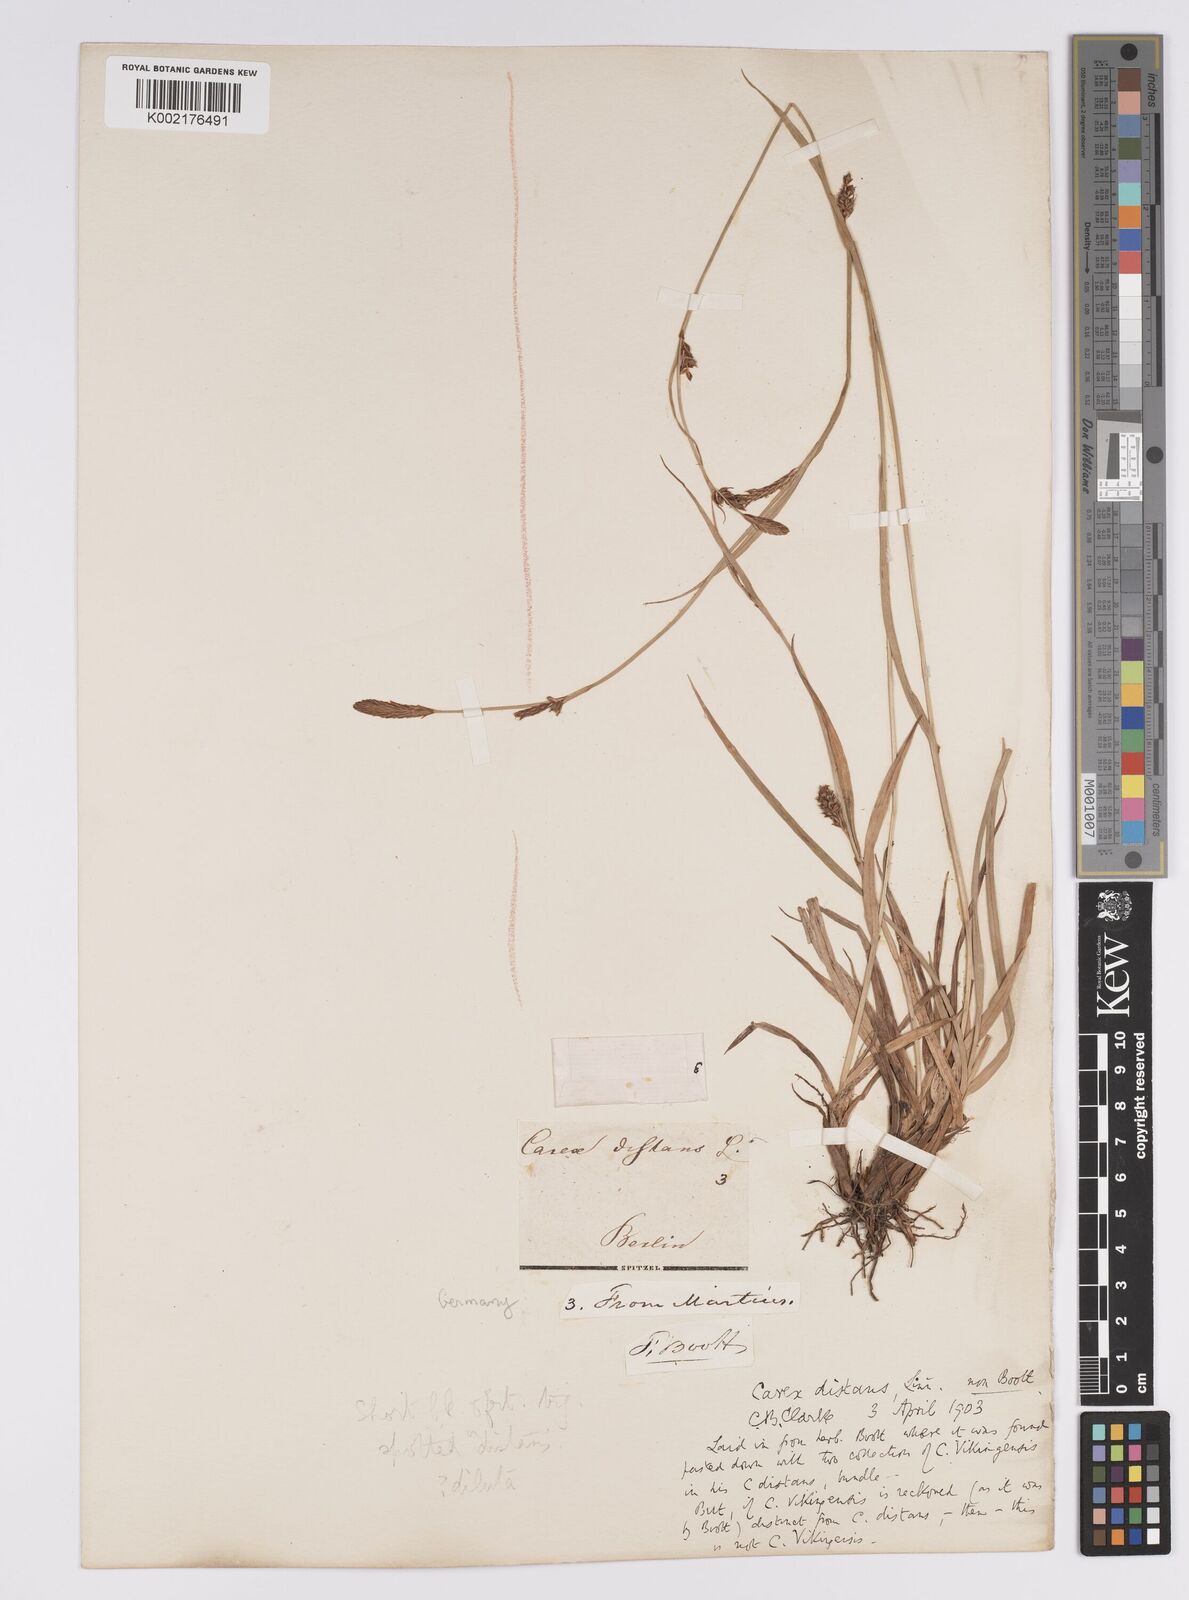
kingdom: Plantae
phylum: Tracheophyta
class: Liliopsida
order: Poales
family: Cyperaceae
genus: Carex
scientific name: Carex distans
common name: Distant sedge
